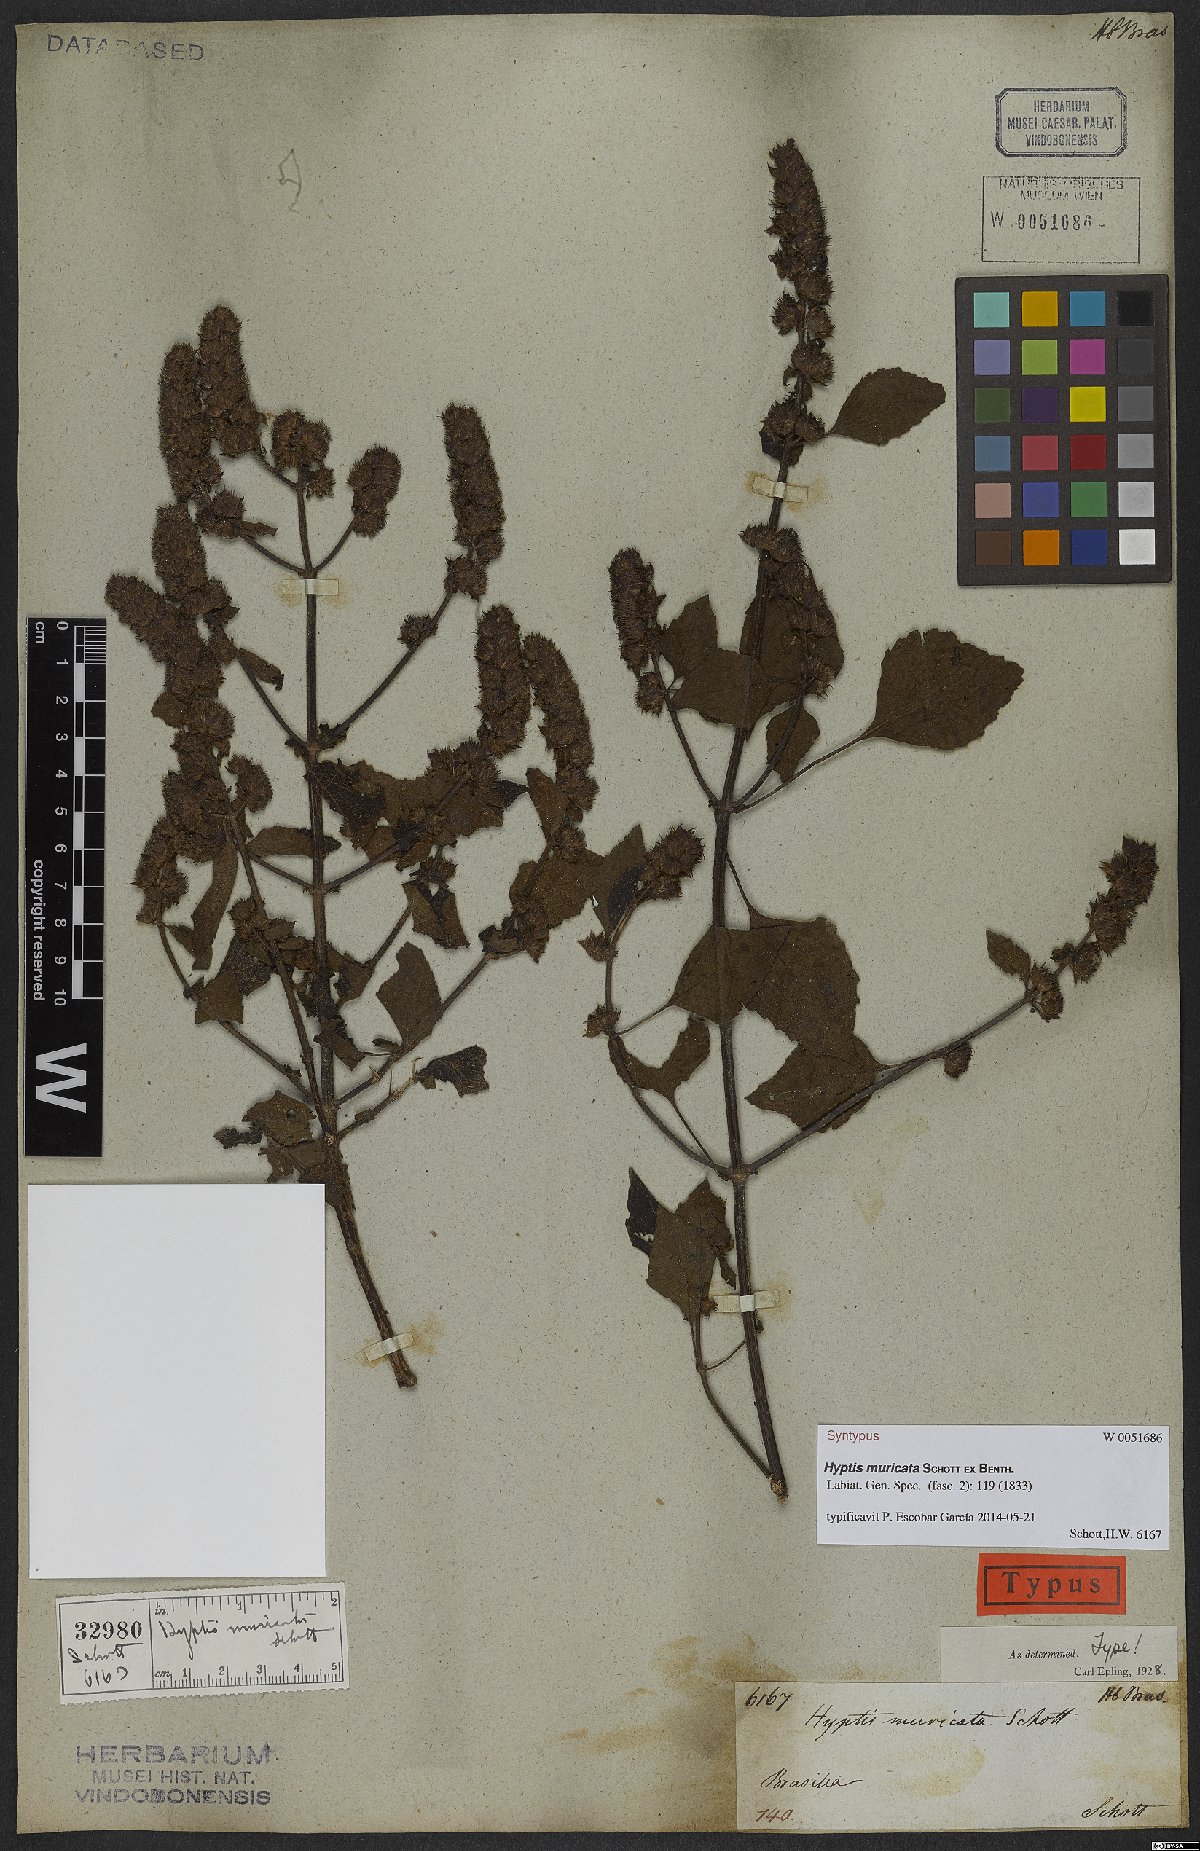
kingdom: Plantae
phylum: Tracheophyta
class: Magnoliopsida
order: Lamiales
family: Lamiaceae
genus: Cantinoa
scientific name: Cantinoa muricata
